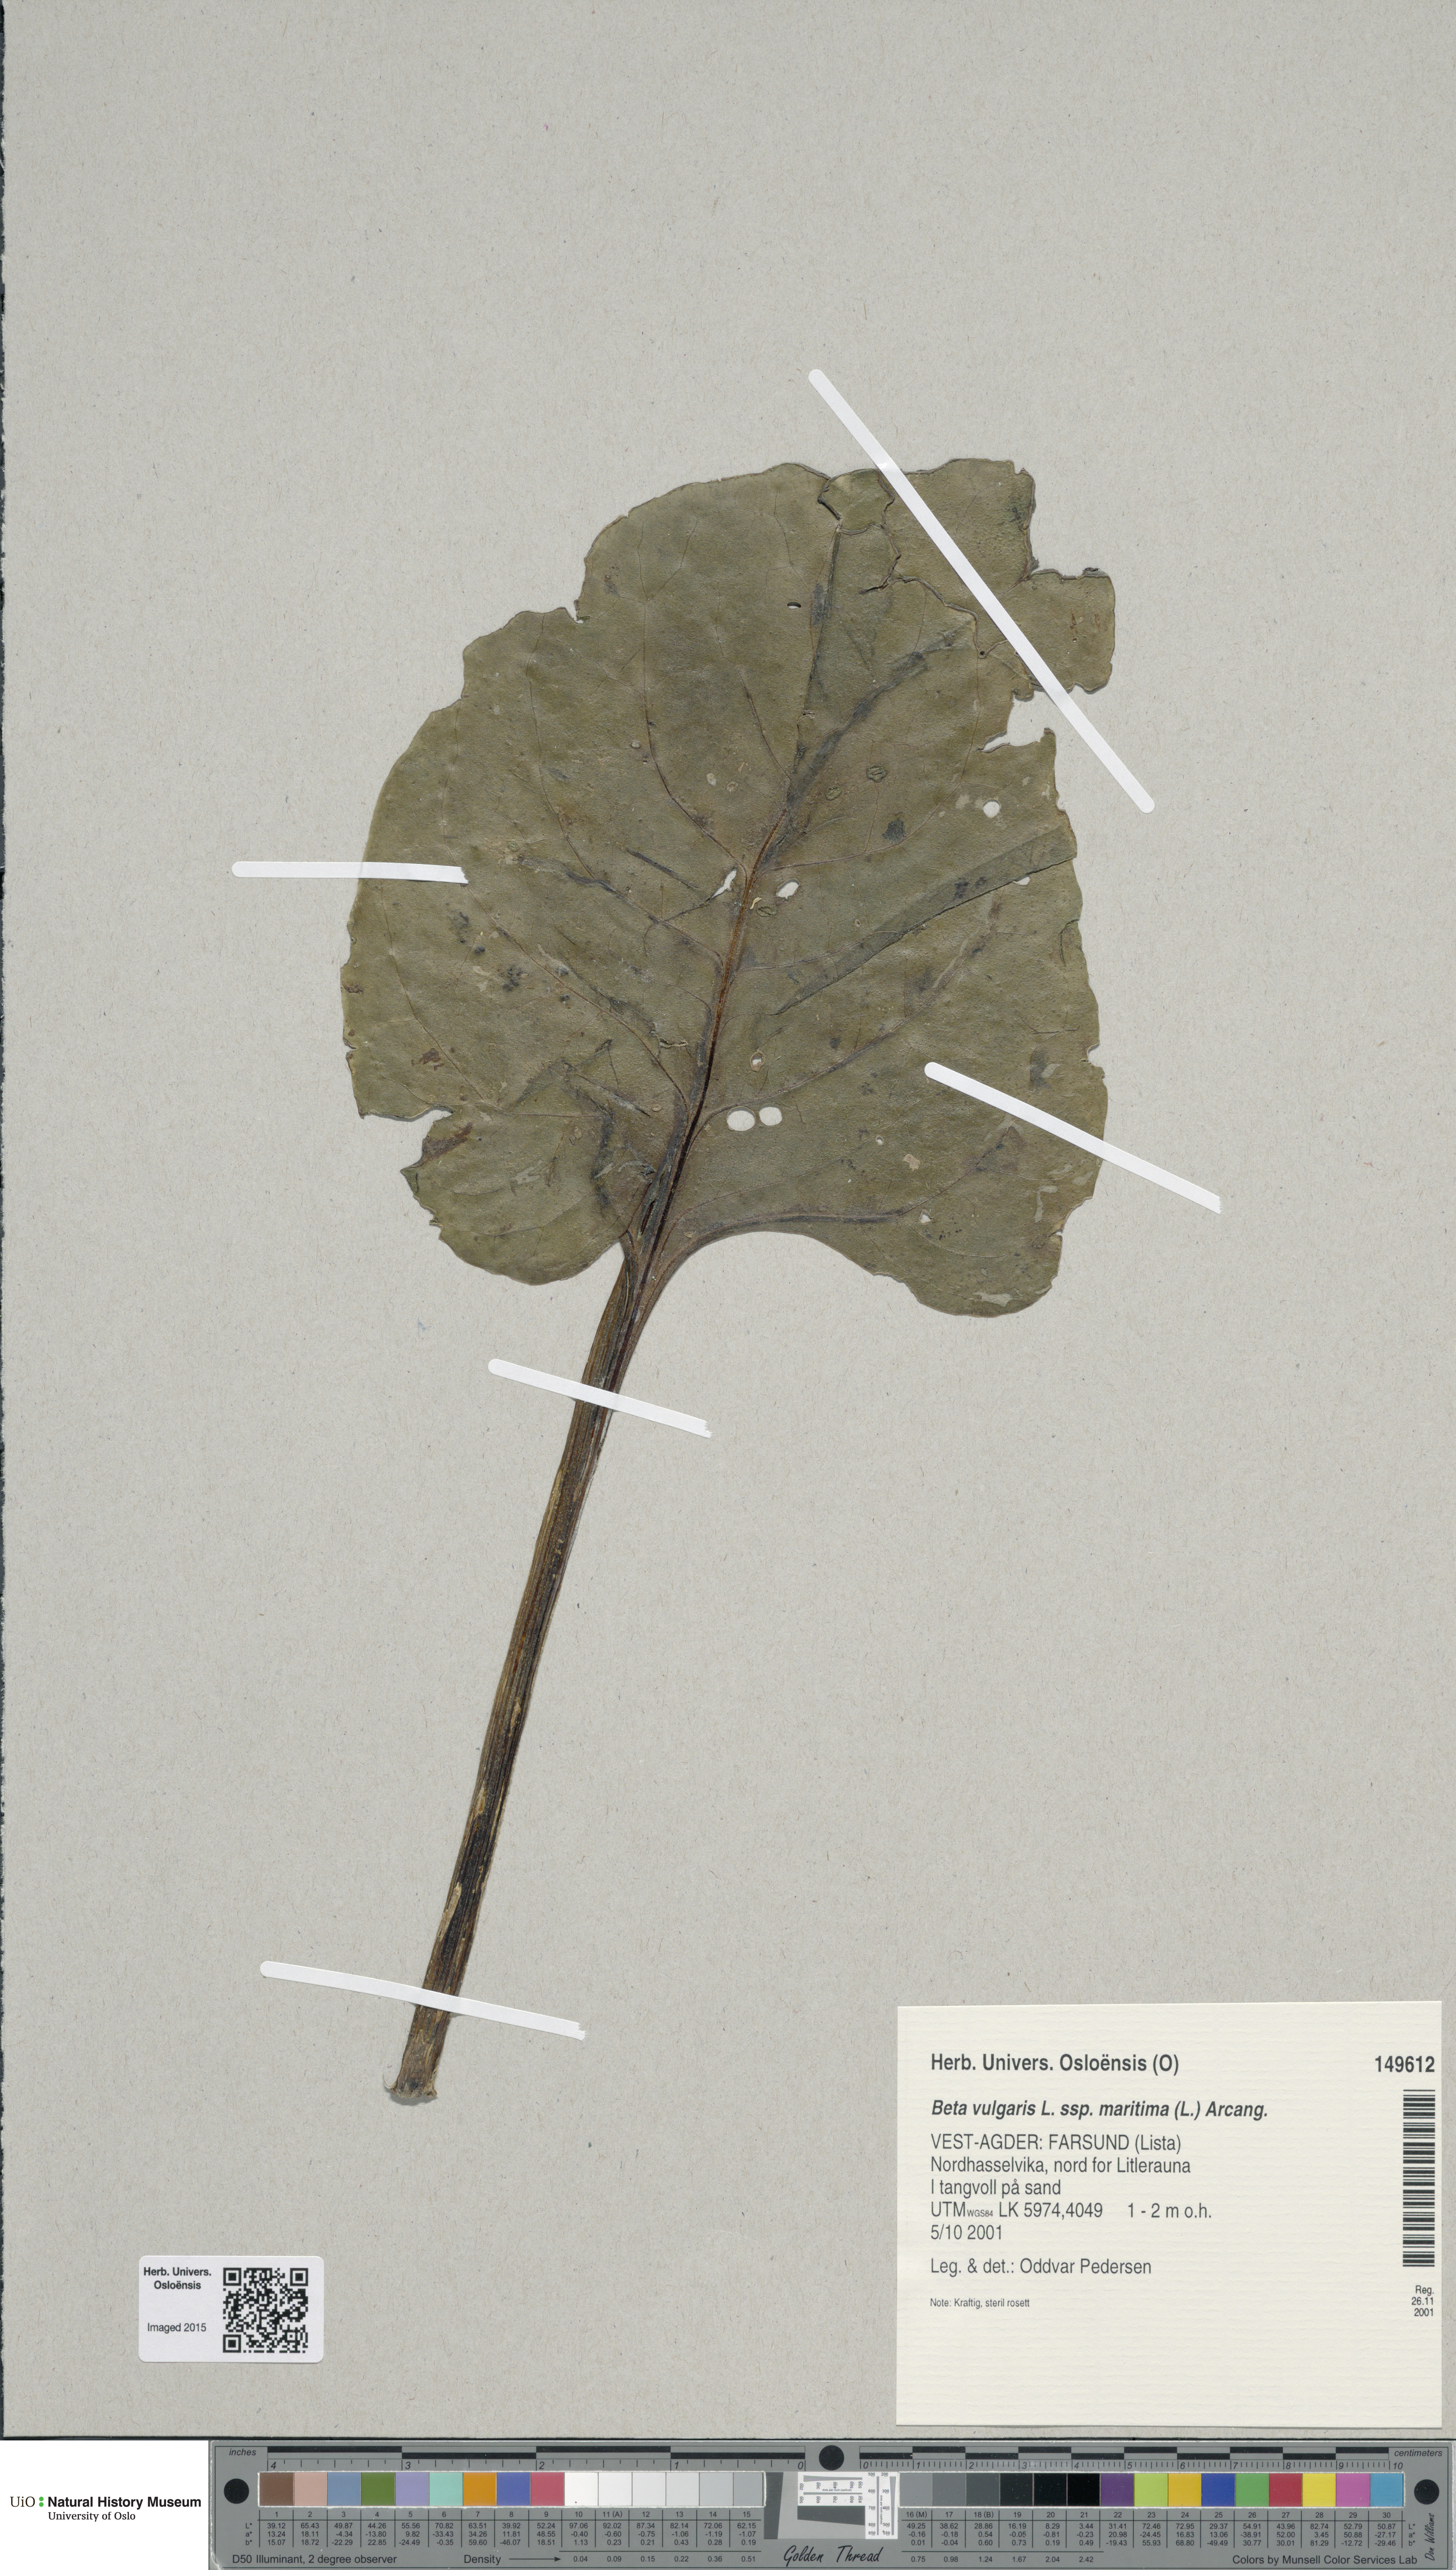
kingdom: Plantae
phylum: Tracheophyta
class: Magnoliopsida
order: Caryophyllales
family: Amaranthaceae
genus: Beta
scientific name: Beta maritima
